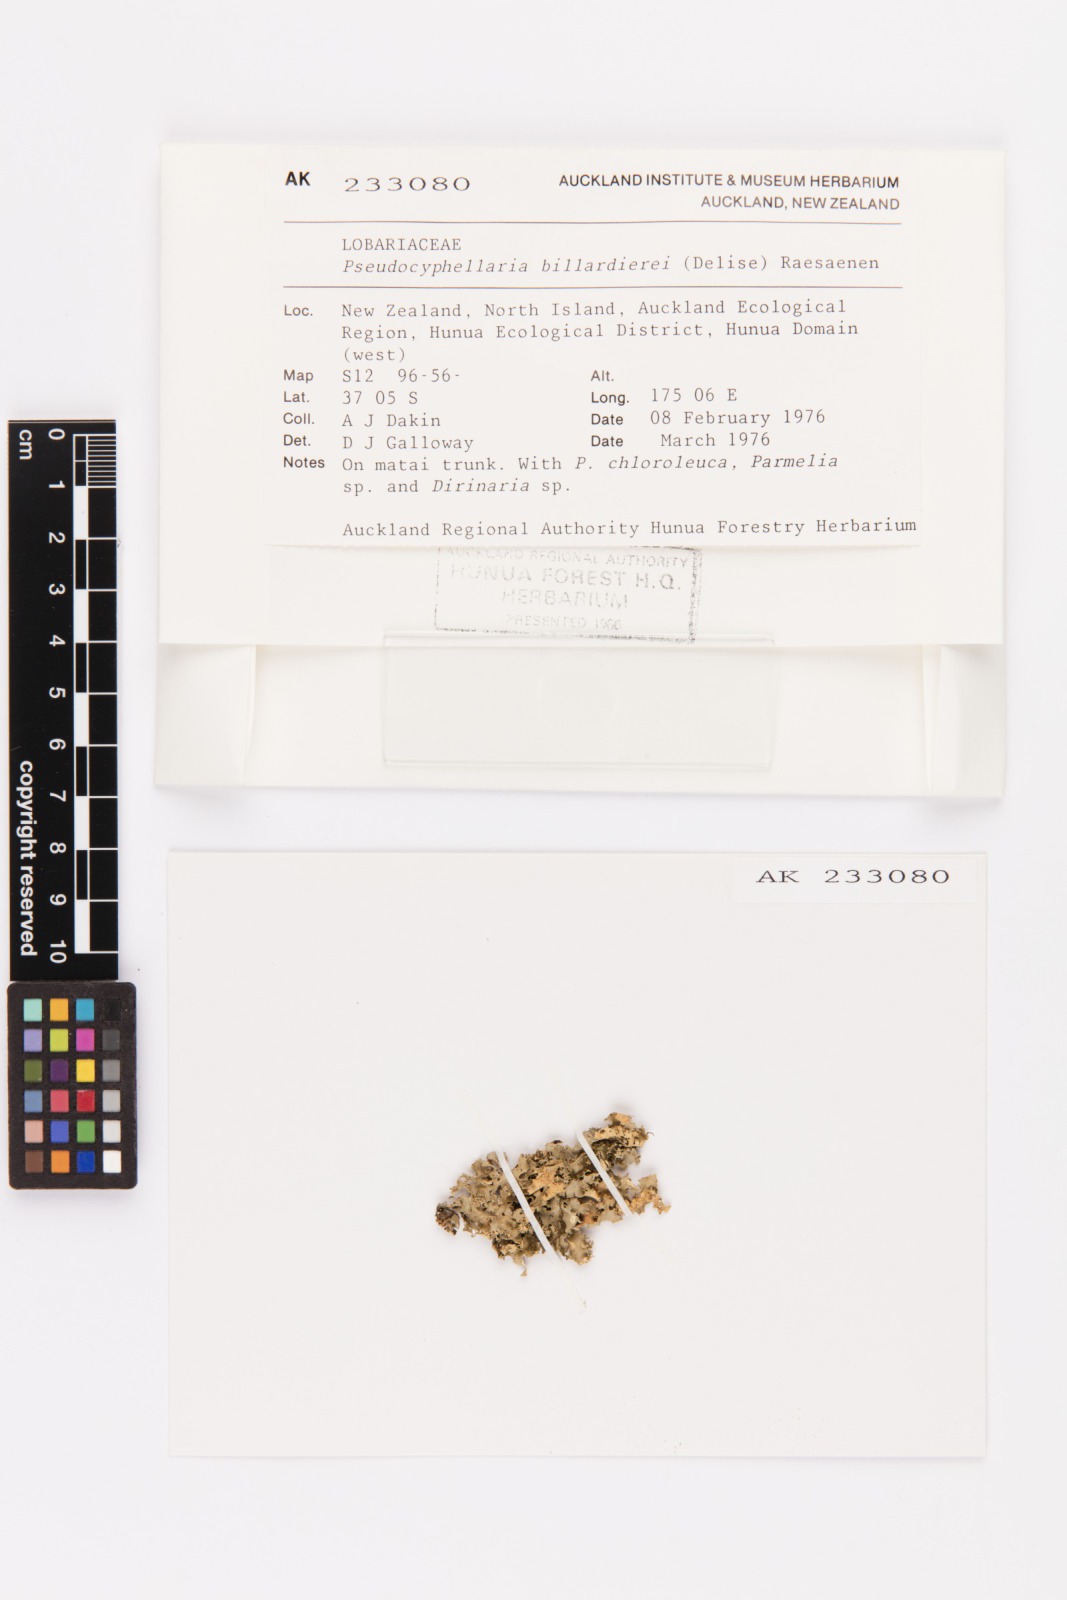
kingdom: Fungi
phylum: Ascomycota
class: Lecanoromycetes
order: Peltigerales
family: Lobariaceae
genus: Pseudocyphellaria
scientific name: Pseudocyphellaria billardierei
